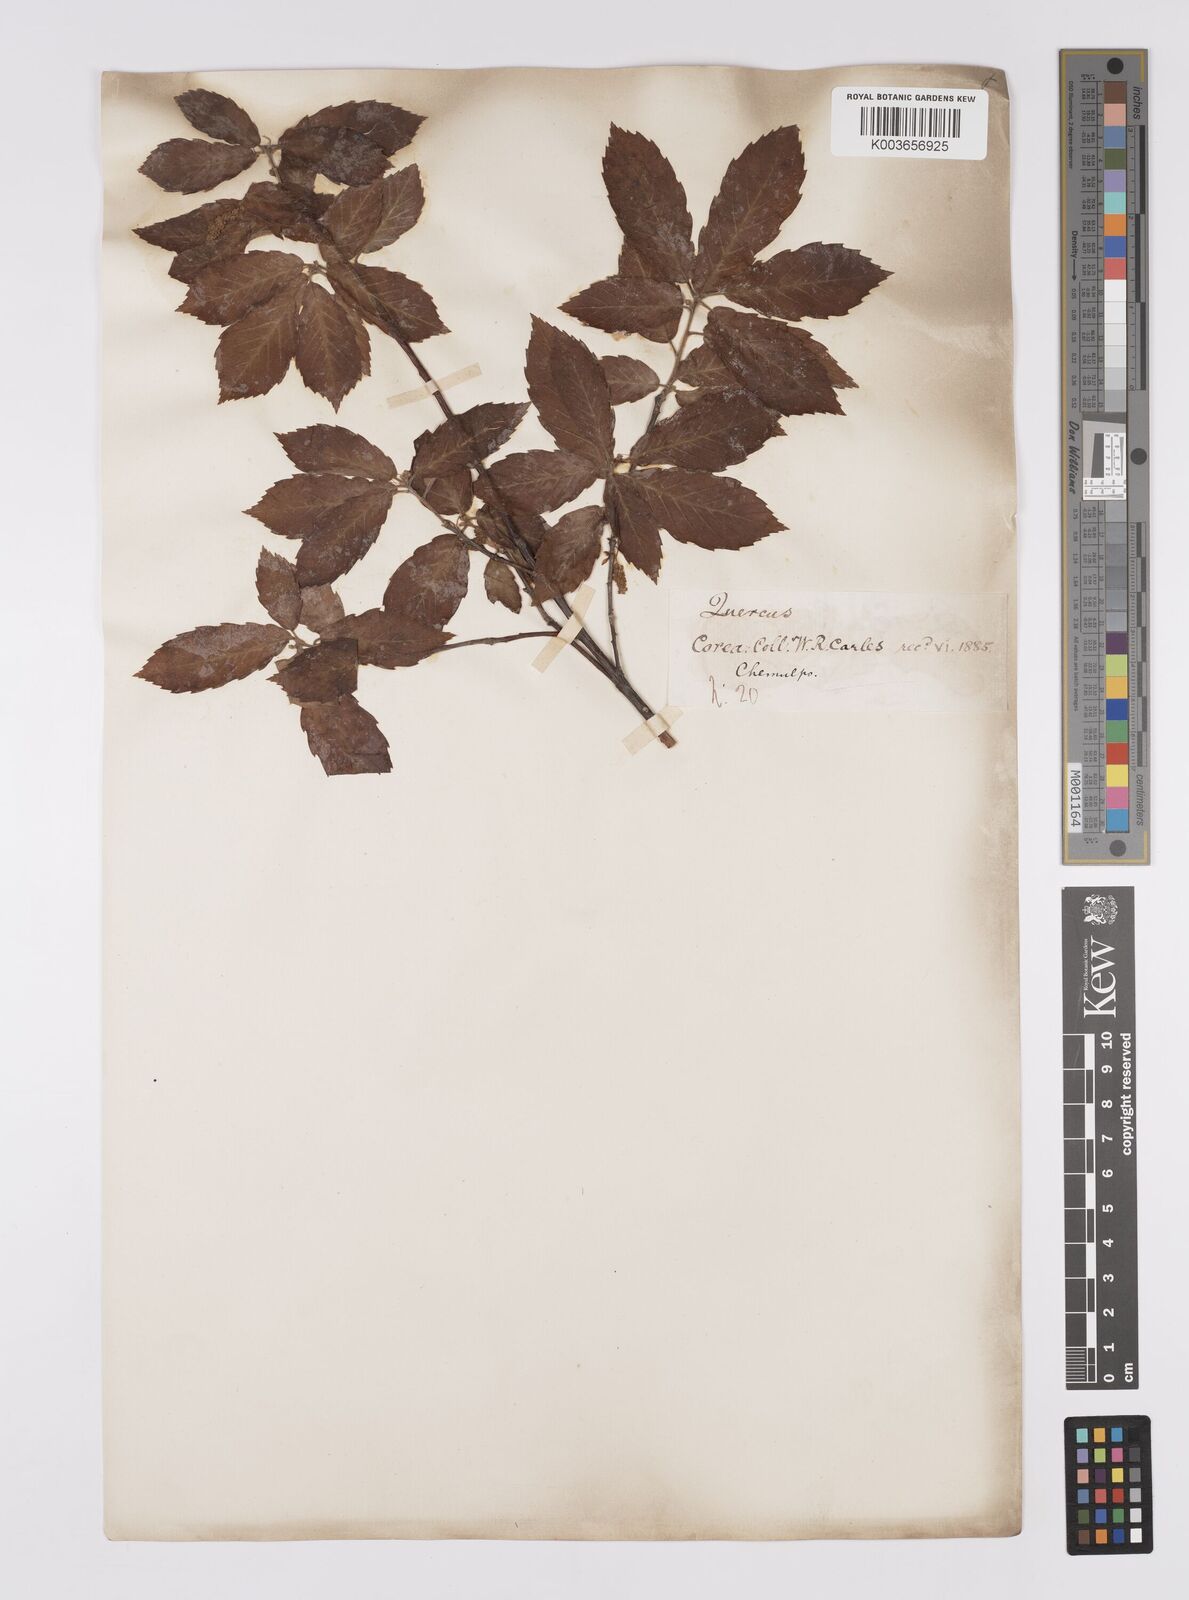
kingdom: Plantae
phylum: Tracheophyta
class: Magnoliopsida
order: Fagales
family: Fagaceae
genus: Quercus
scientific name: Quercus serrata
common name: Bao li
